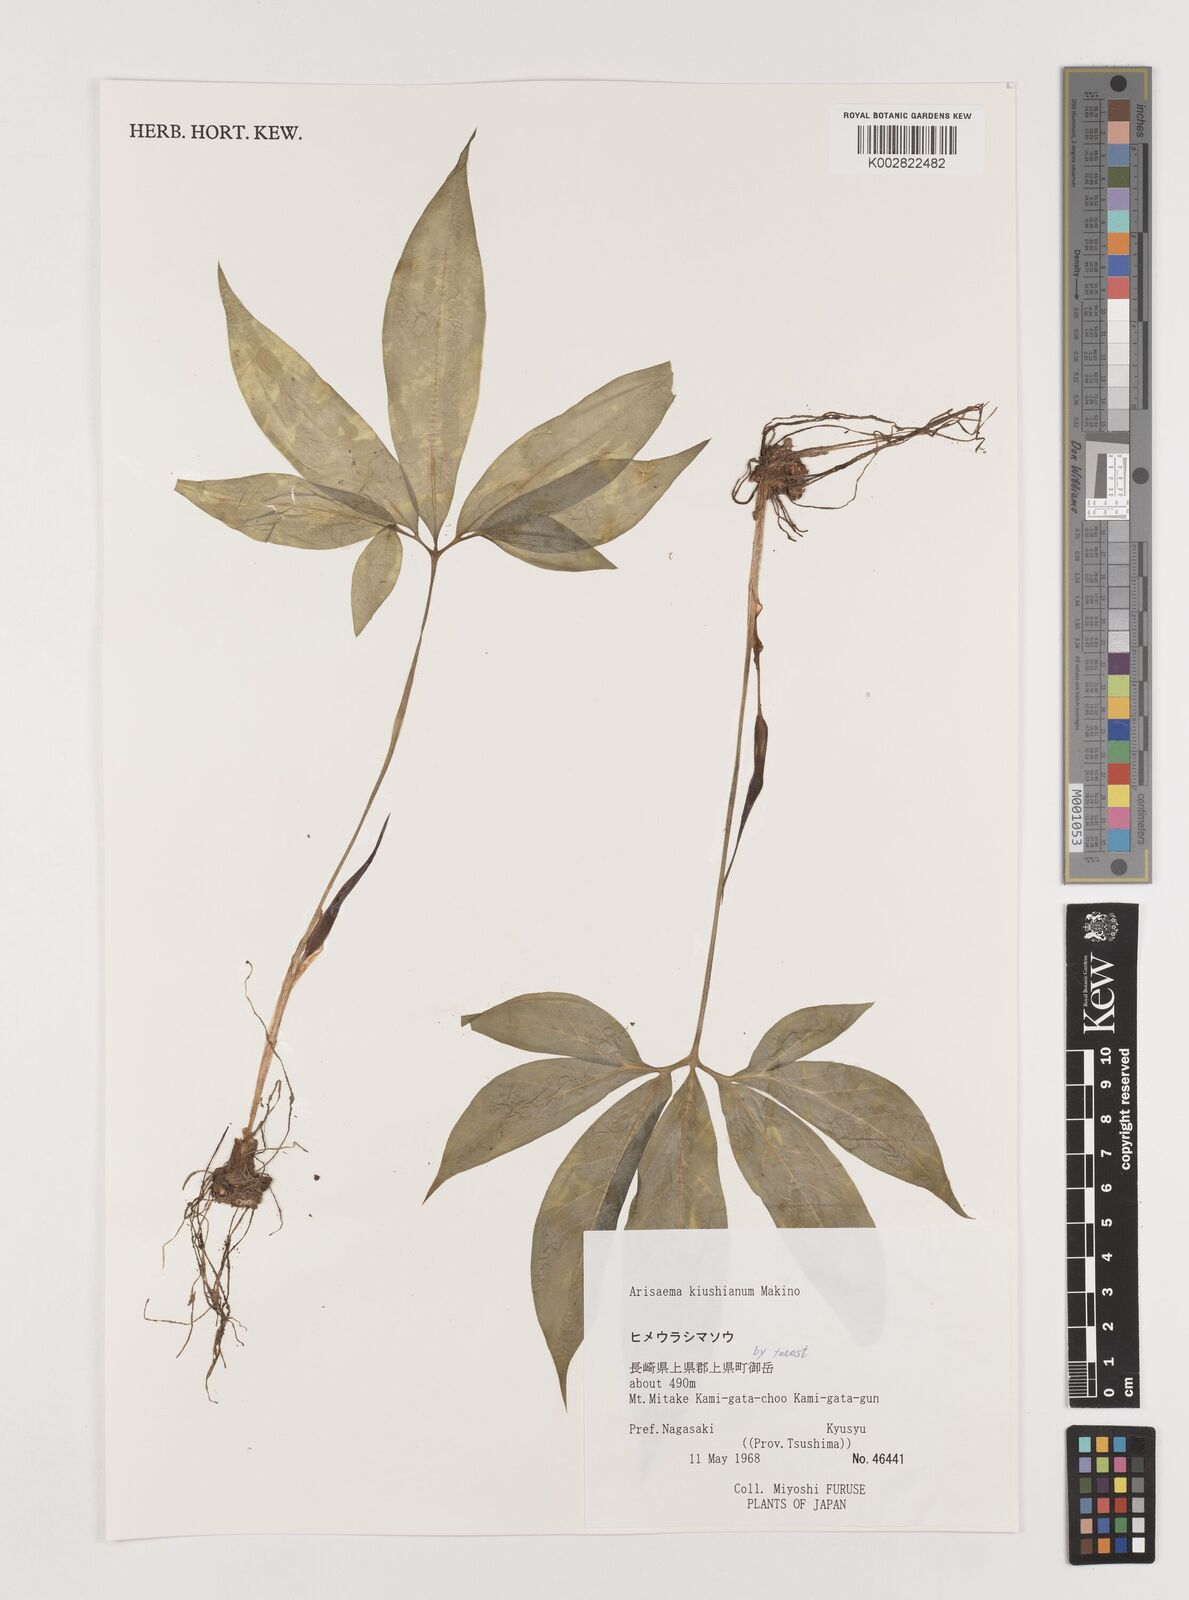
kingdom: Plantae
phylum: Tracheophyta
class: Liliopsida
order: Alismatales
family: Araceae
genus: Arisaema
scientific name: Arisaema kiushianum
